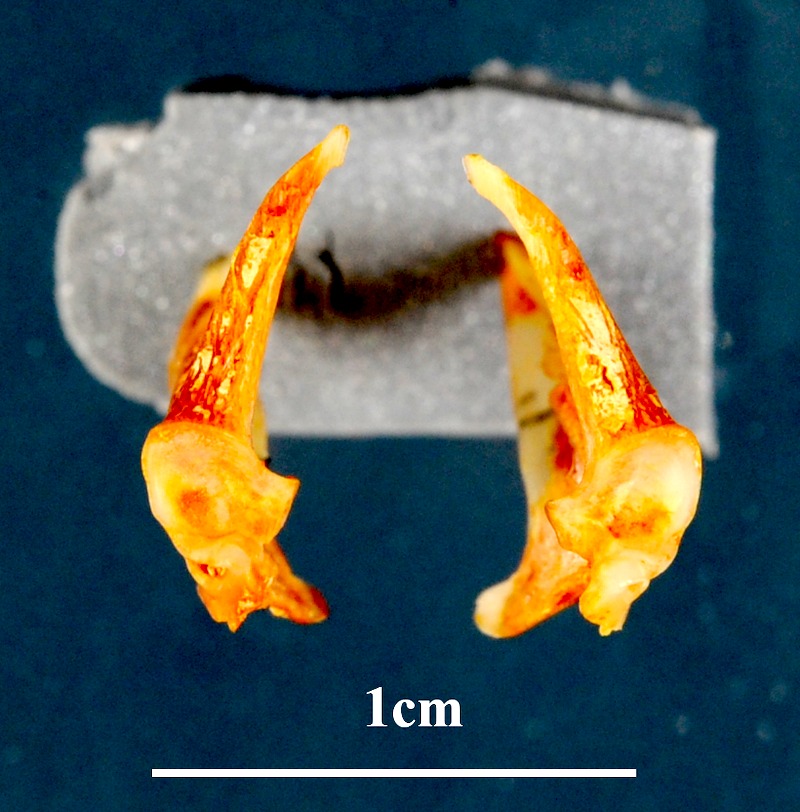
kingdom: Animalia
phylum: Chordata
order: Perciformes
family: Sparidae
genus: Pagellus
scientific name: Pagellus acarne
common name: Axillary sea-bream
